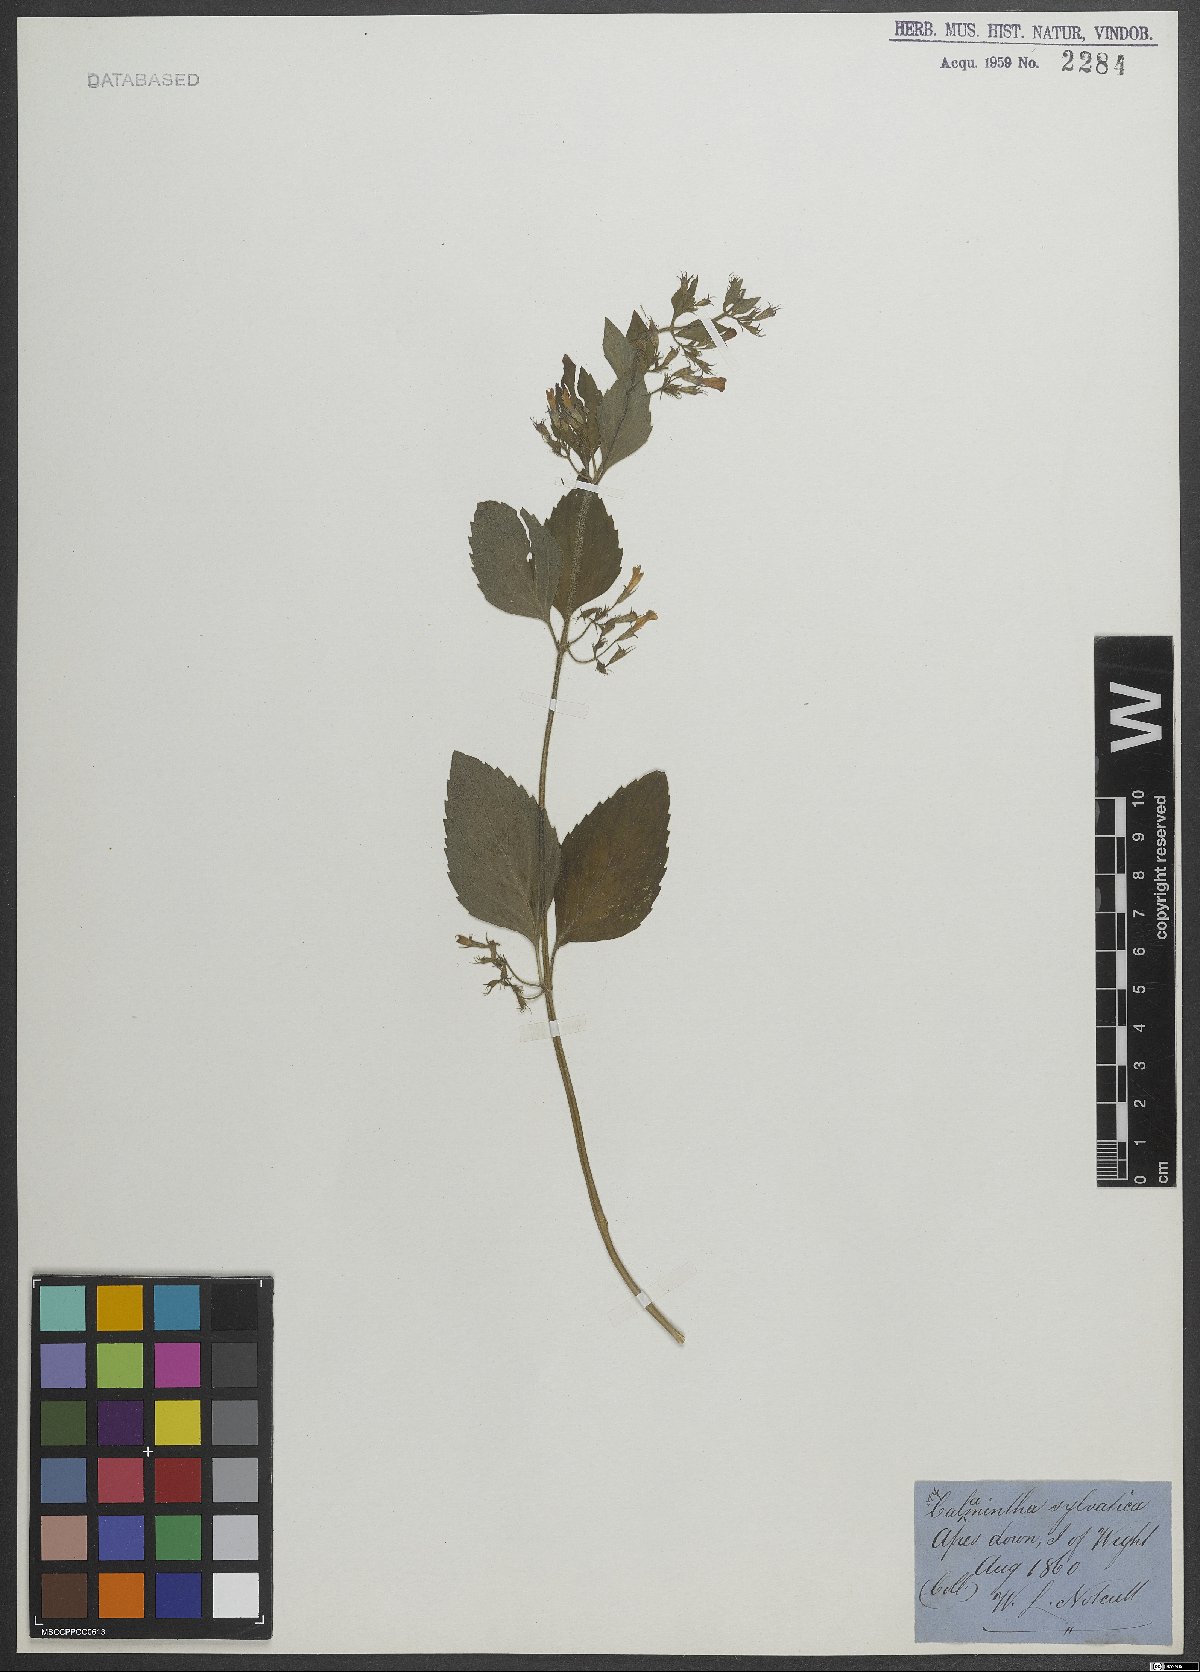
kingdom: Plantae
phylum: Tracheophyta
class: Magnoliopsida
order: Lamiales
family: Lamiaceae
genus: Clinopodium
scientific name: Clinopodium menthifolium
